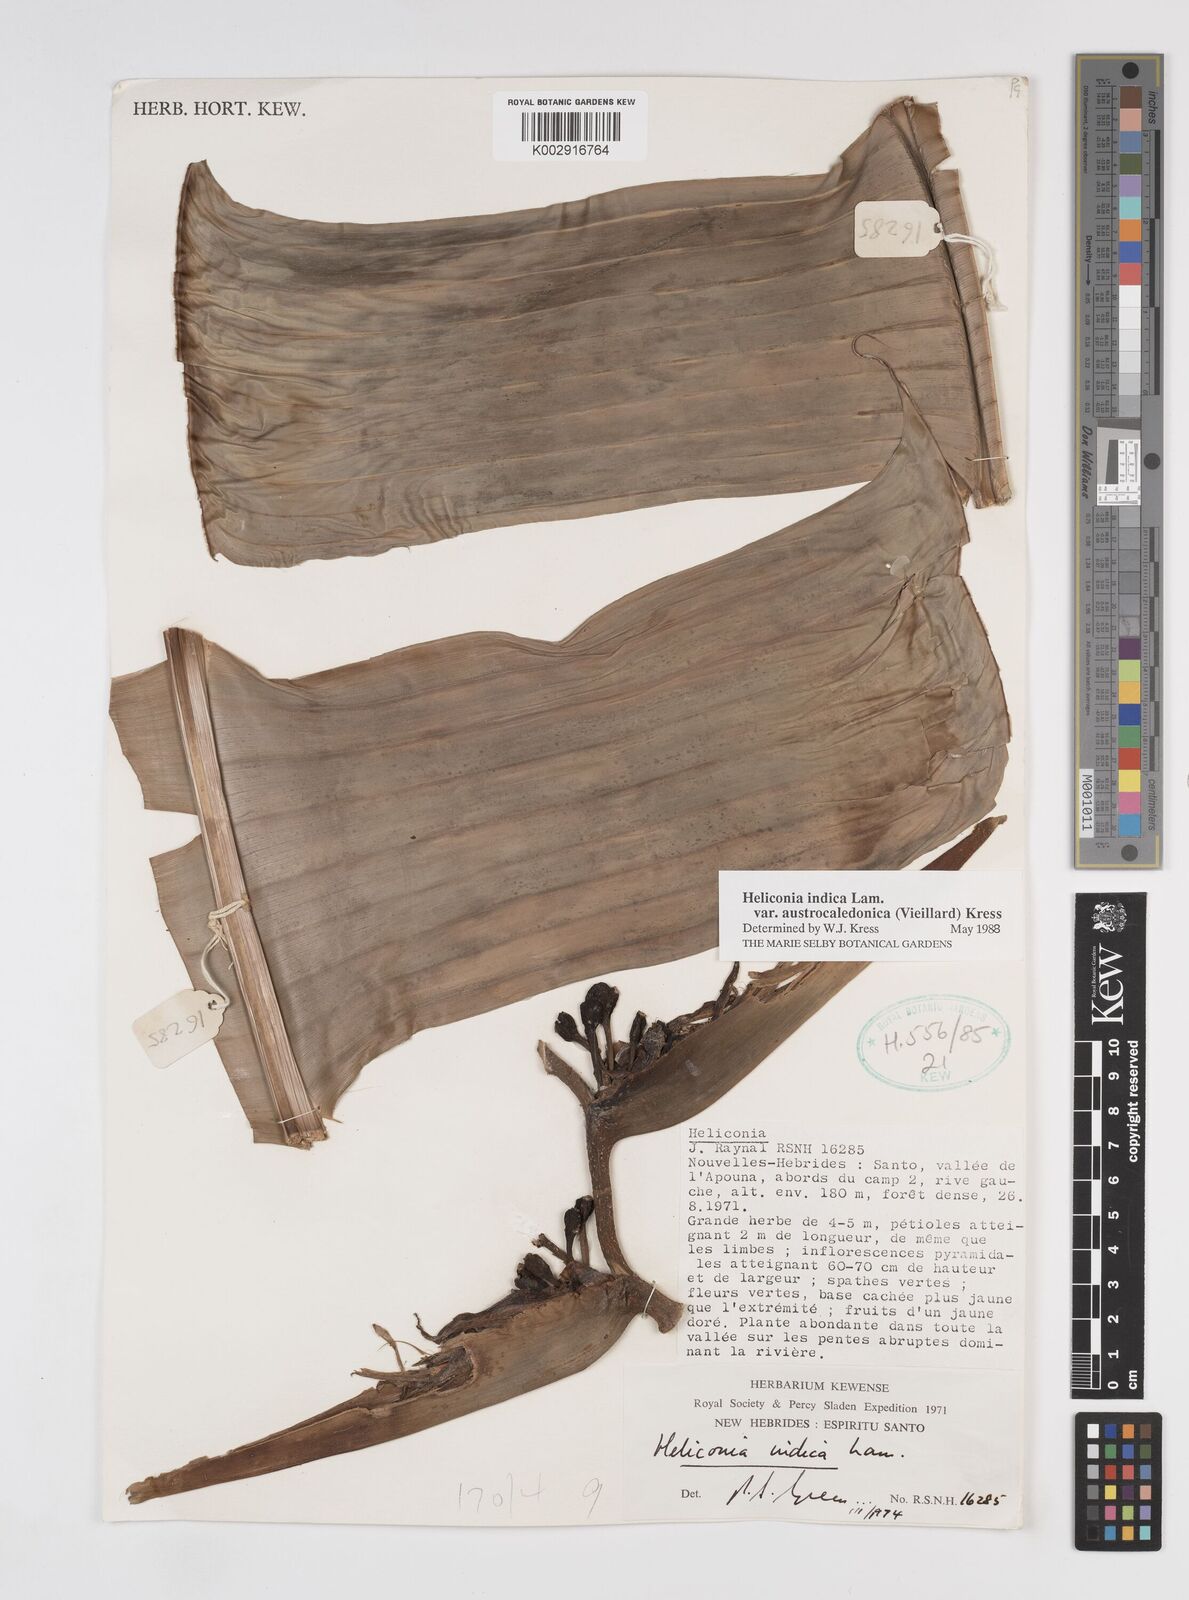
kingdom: Plantae
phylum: Tracheophyta
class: Liliopsida
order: Zingiberales
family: Heliconiaceae
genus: Heliconia
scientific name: Heliconia indica
